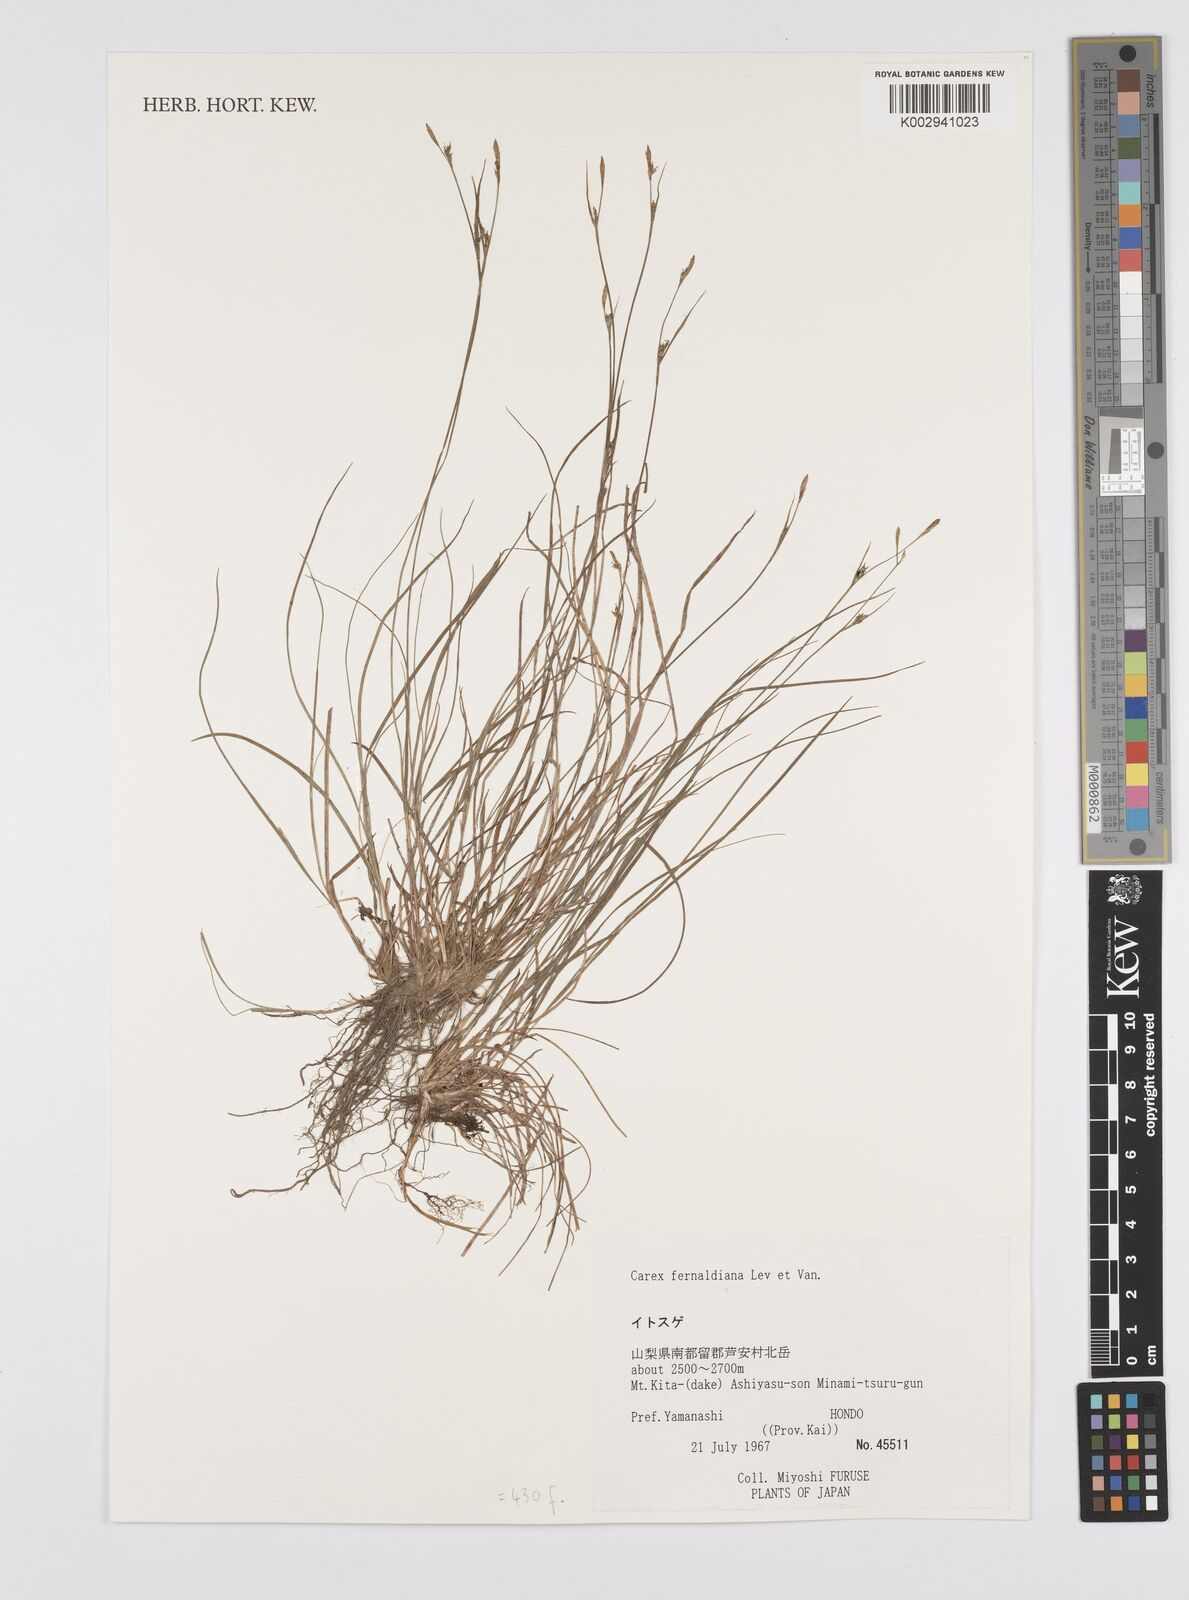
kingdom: Plantae
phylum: Tracheophyta
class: Liliopsida
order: Poales
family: Cyperaceae
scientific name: Cyperaceae
